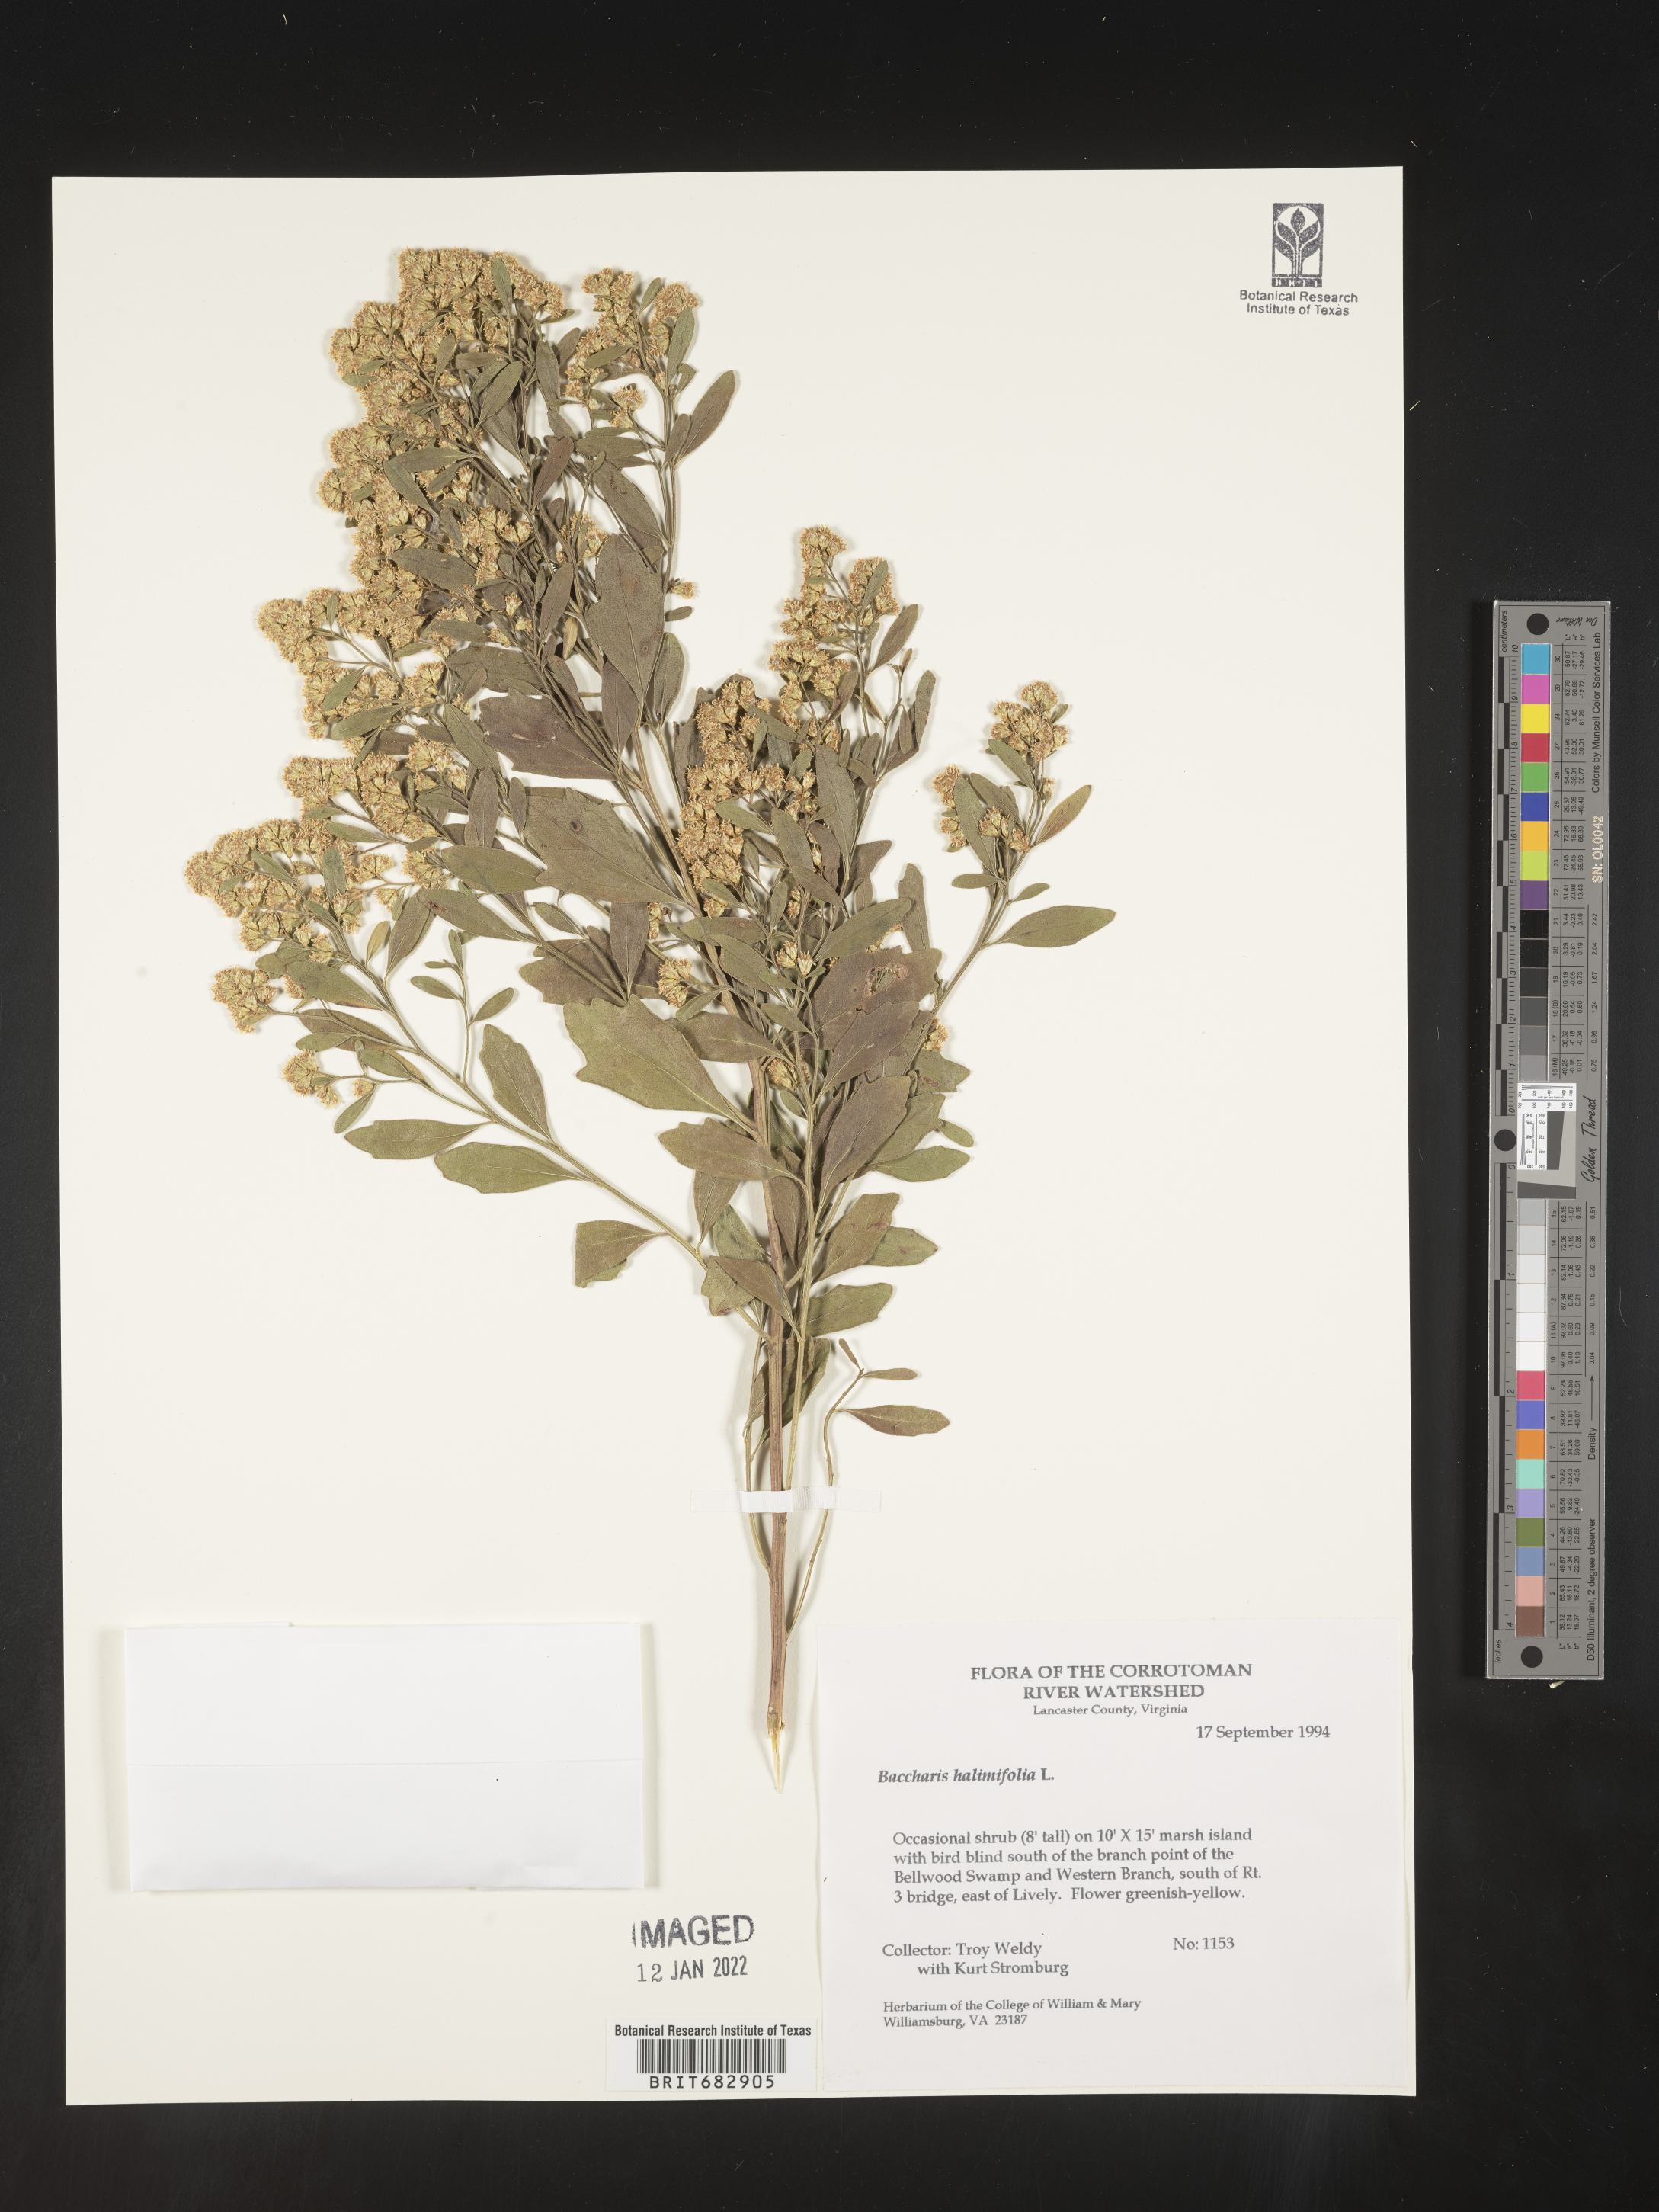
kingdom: Plantae
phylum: Tracheophyta
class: Magnoliopsida
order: Asterales
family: Asteraceae
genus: Nidorella
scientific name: Nidorella ivifolia
